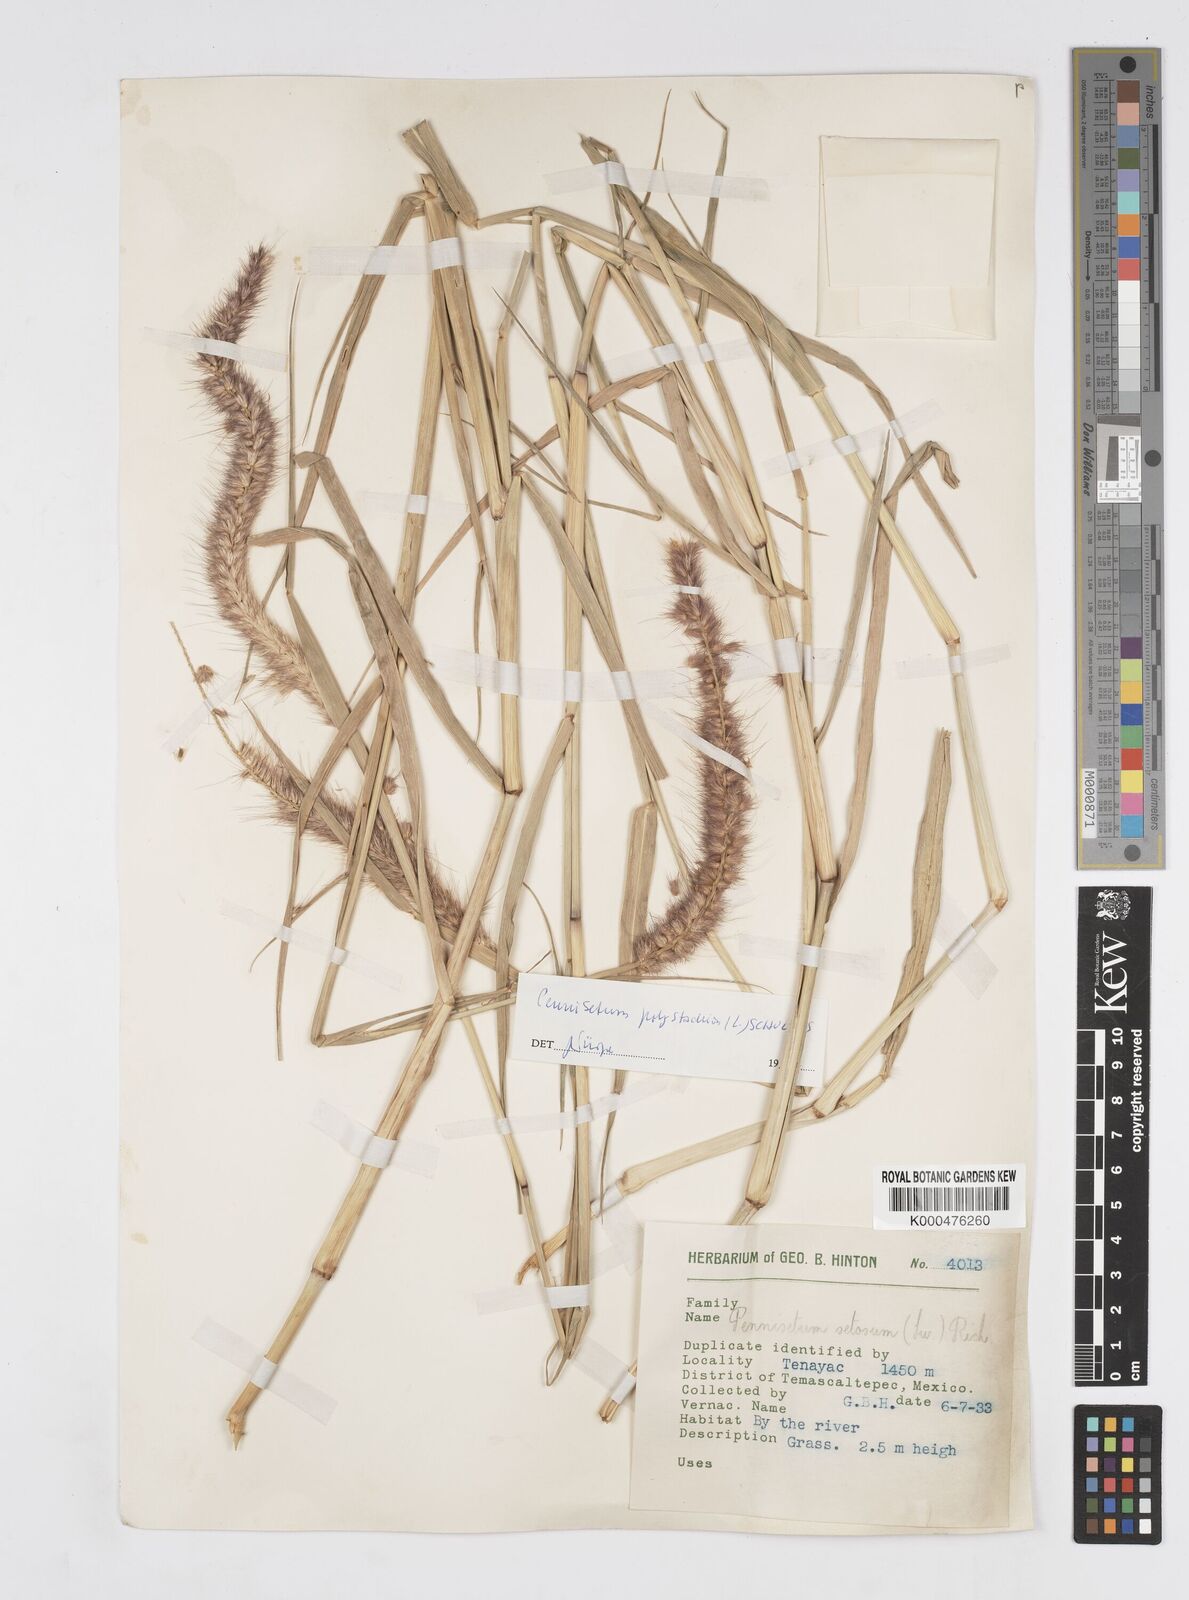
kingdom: Plantae
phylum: Tracheophyta
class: Liliopsida
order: Poales
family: Poaceae
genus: Setaria
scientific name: Setaria parviflora
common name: Knotroot bristle-grass
